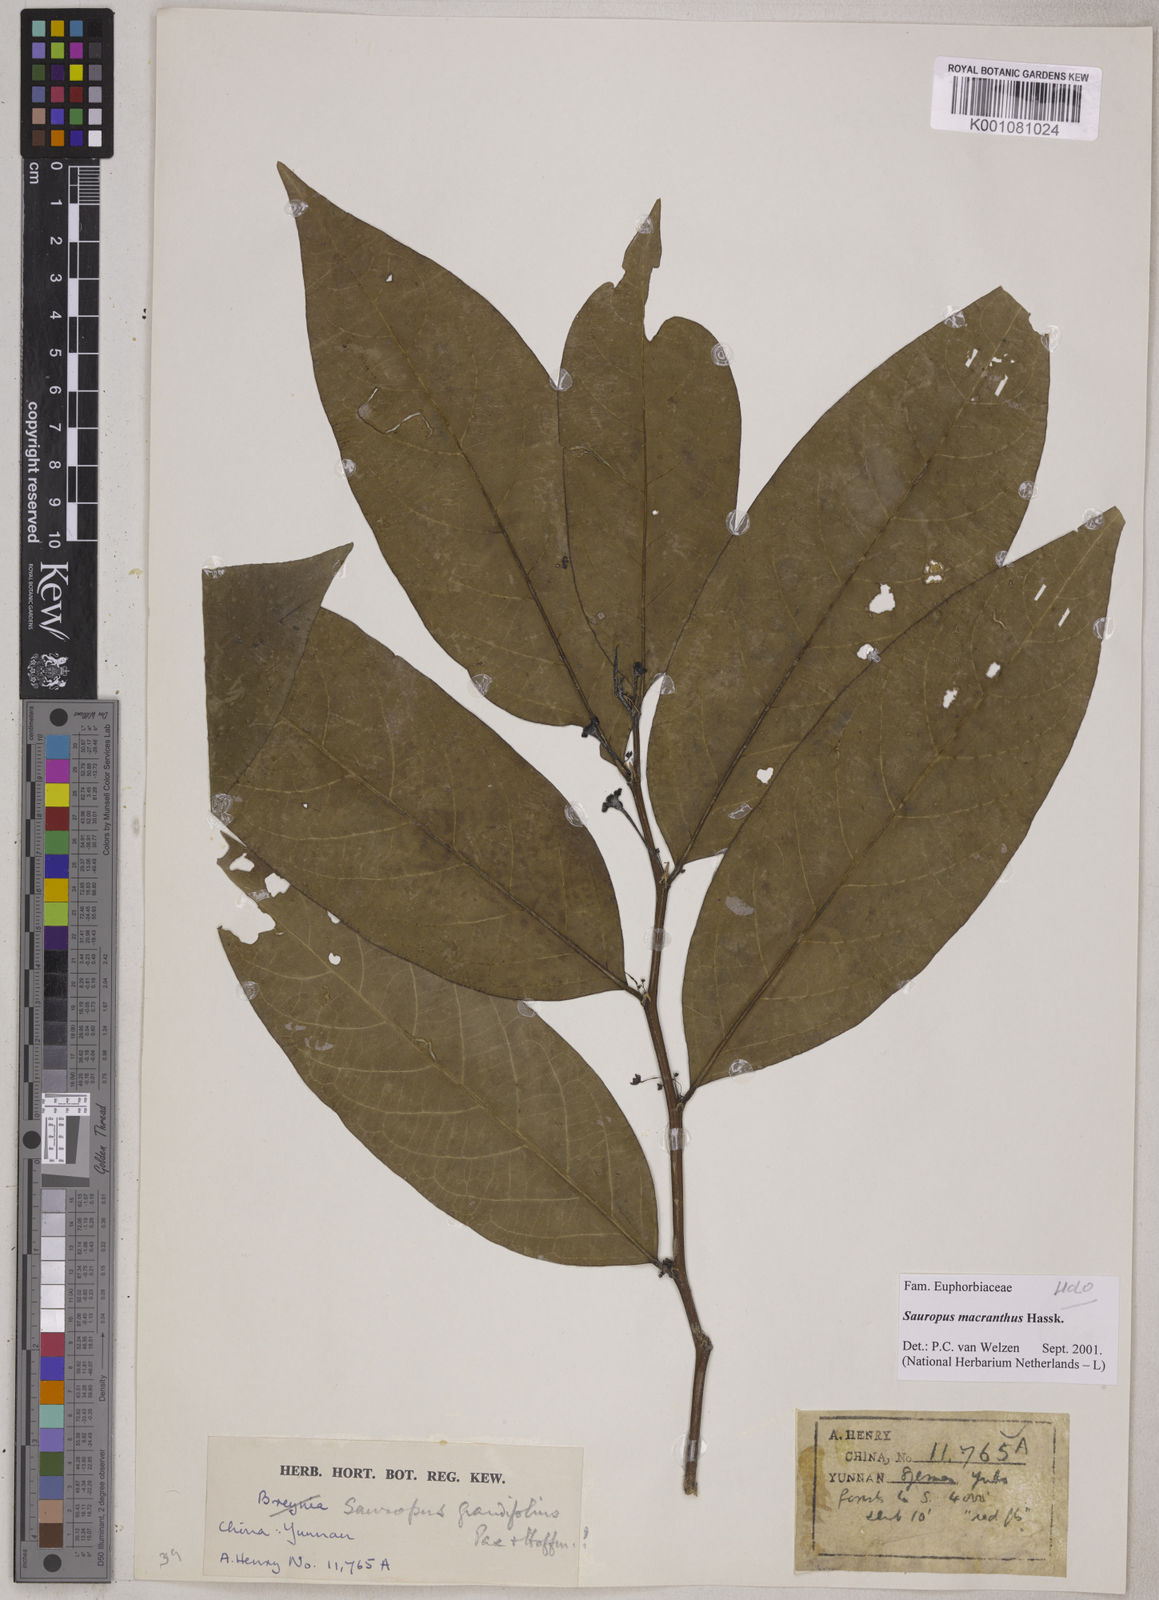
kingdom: Plantae
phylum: Tracheophyta
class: Magnoliopsida
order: Malpighiales
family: Phyllanthaceae
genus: Breynia
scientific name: Breynia macrantha
